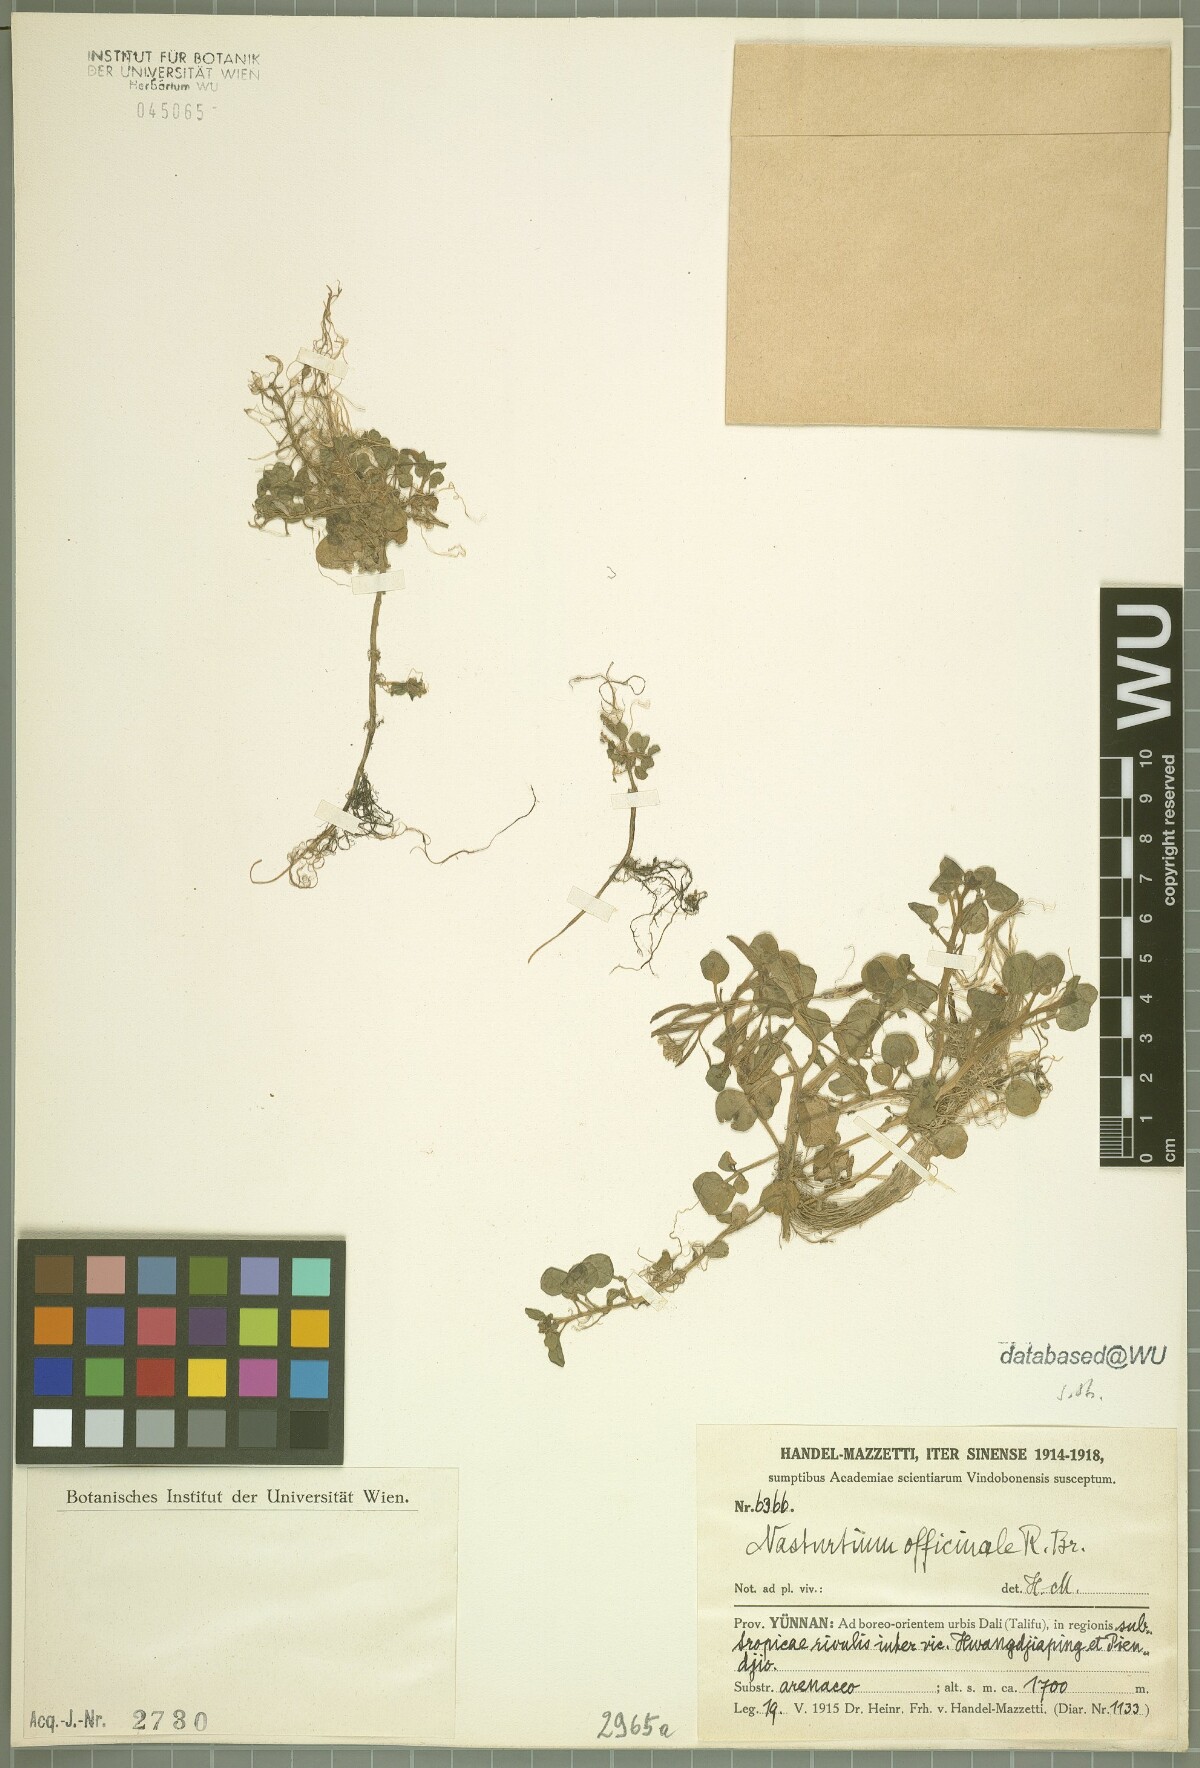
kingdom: Plantae
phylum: Tracheophyta
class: Magnoliopsida
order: Brassicales
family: Brassicaceae
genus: Nasturtium
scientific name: Nasturtium officinale
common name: Watercress
